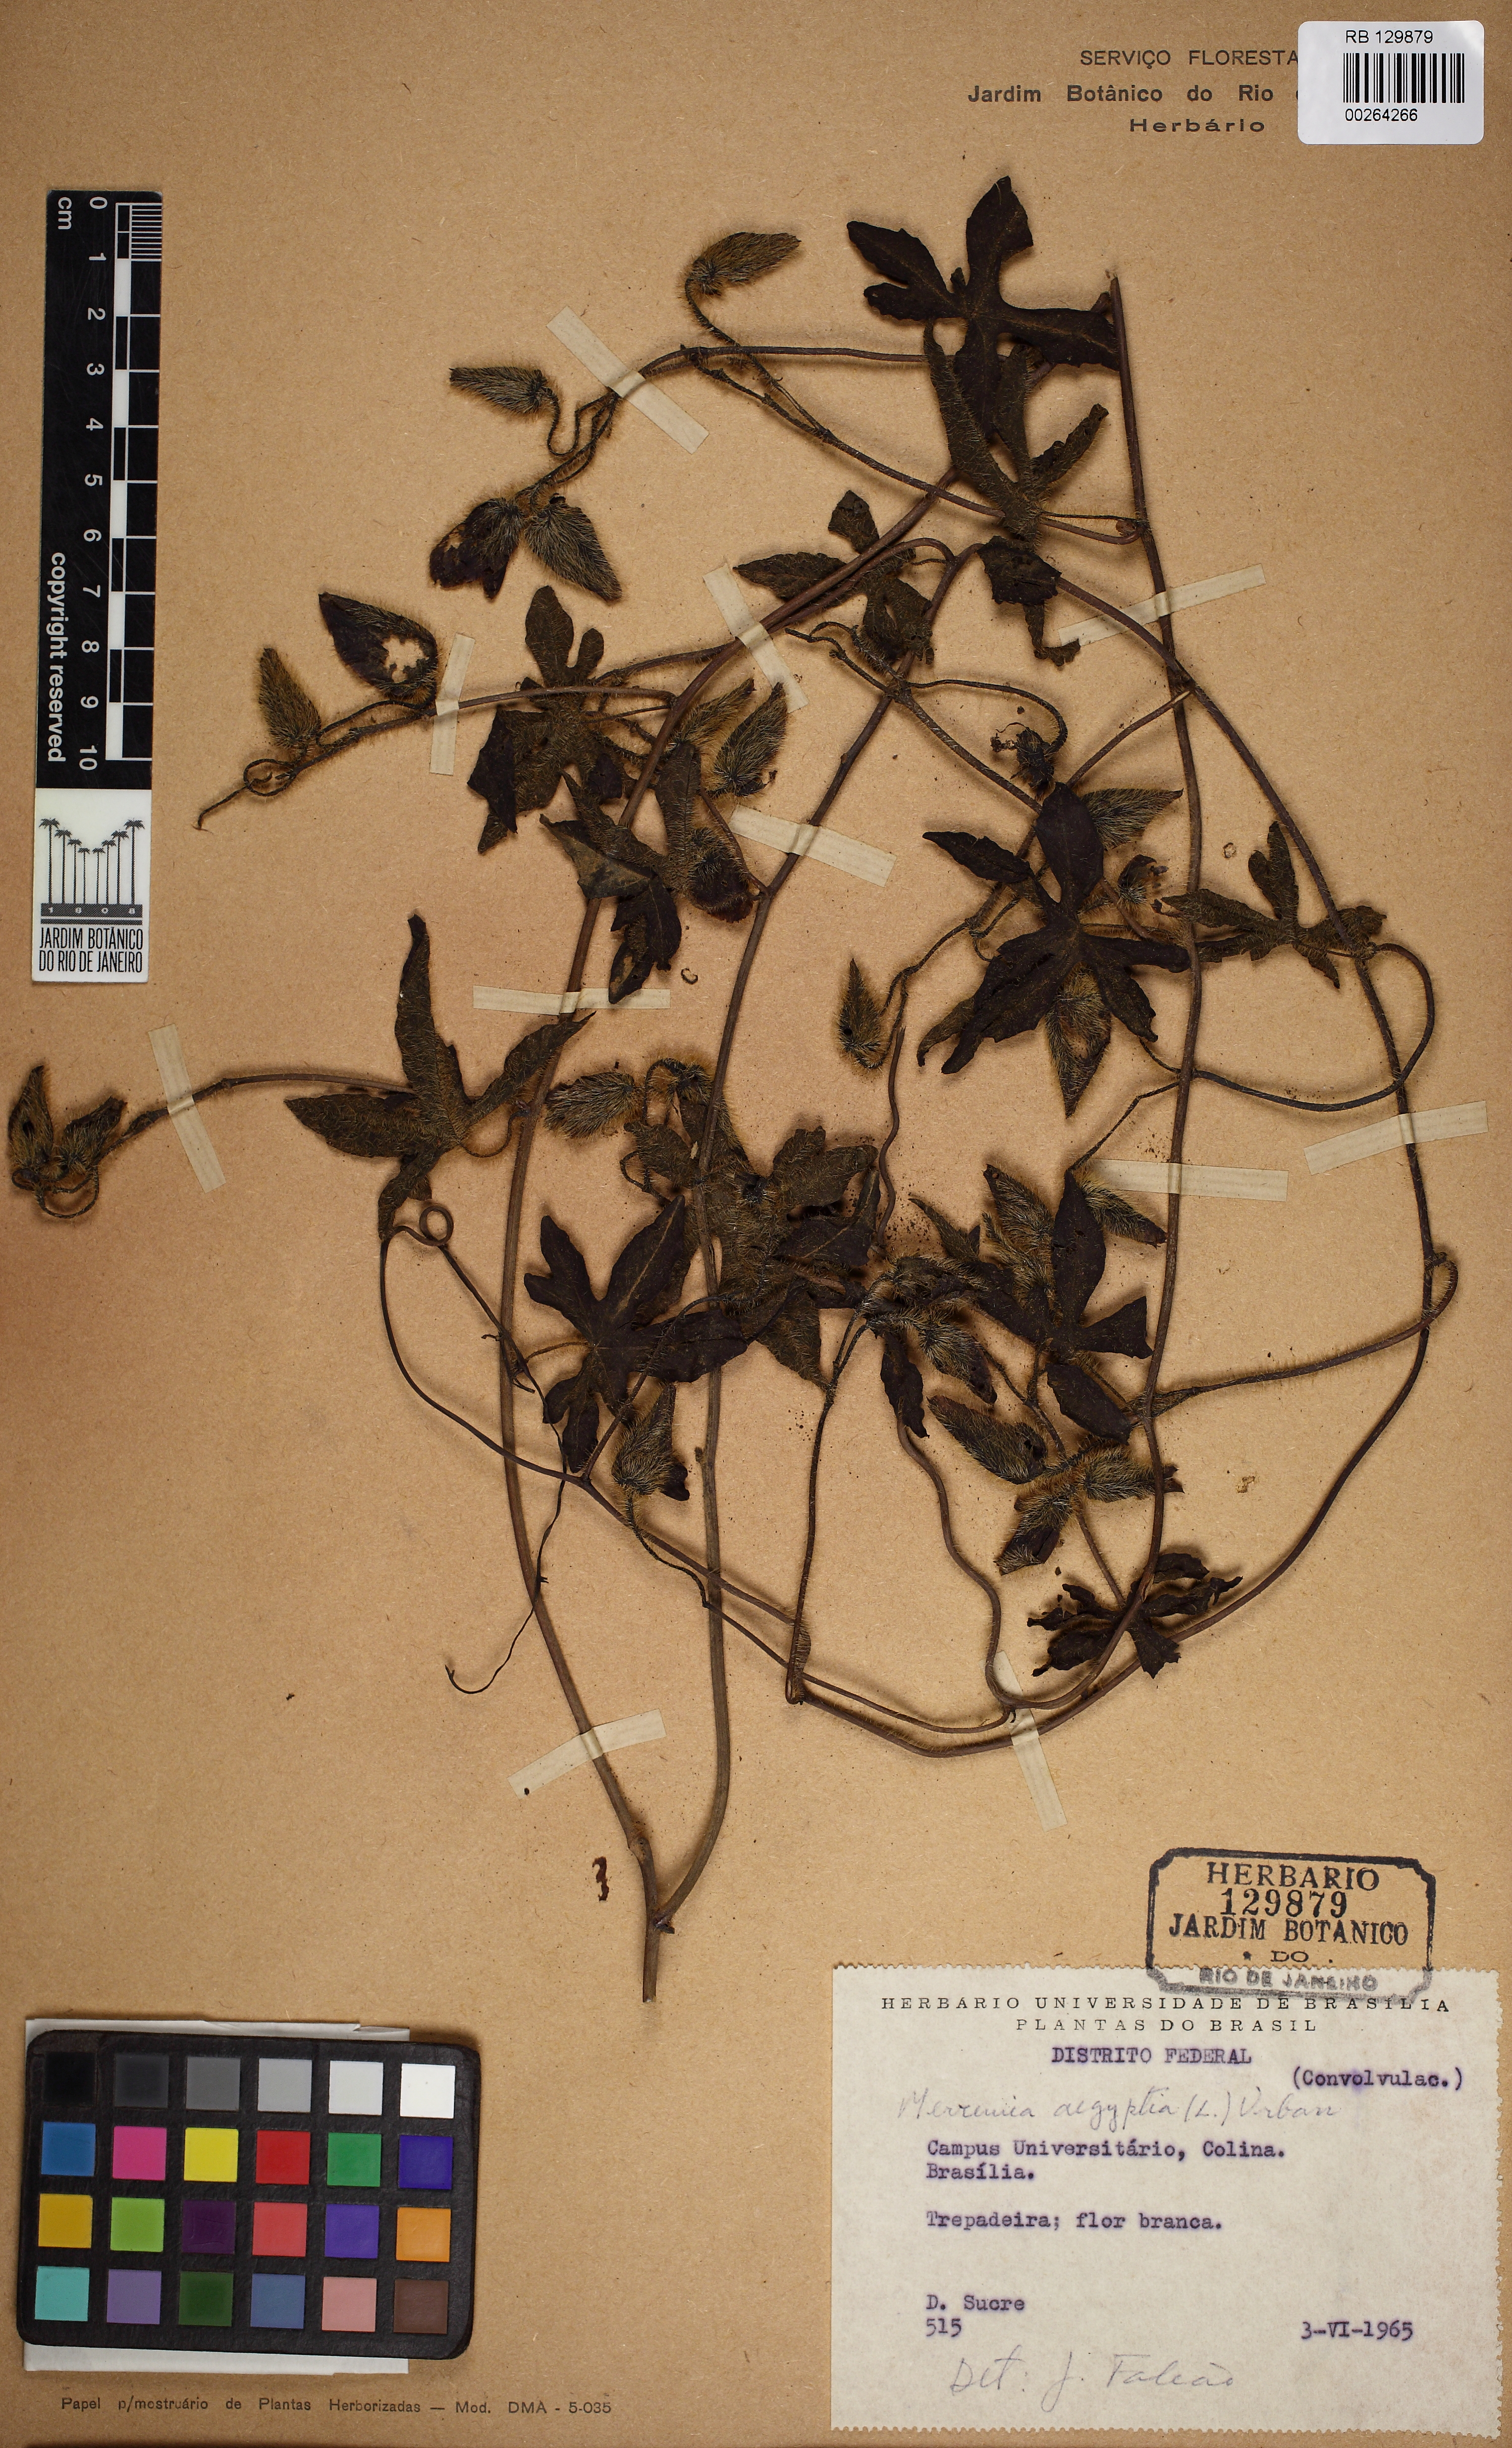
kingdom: Plantae
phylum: Tracheophyta
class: Magnoliopsida
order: Solanales
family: Convolvulaceae
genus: Distimake
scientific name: Distimake dissectus
